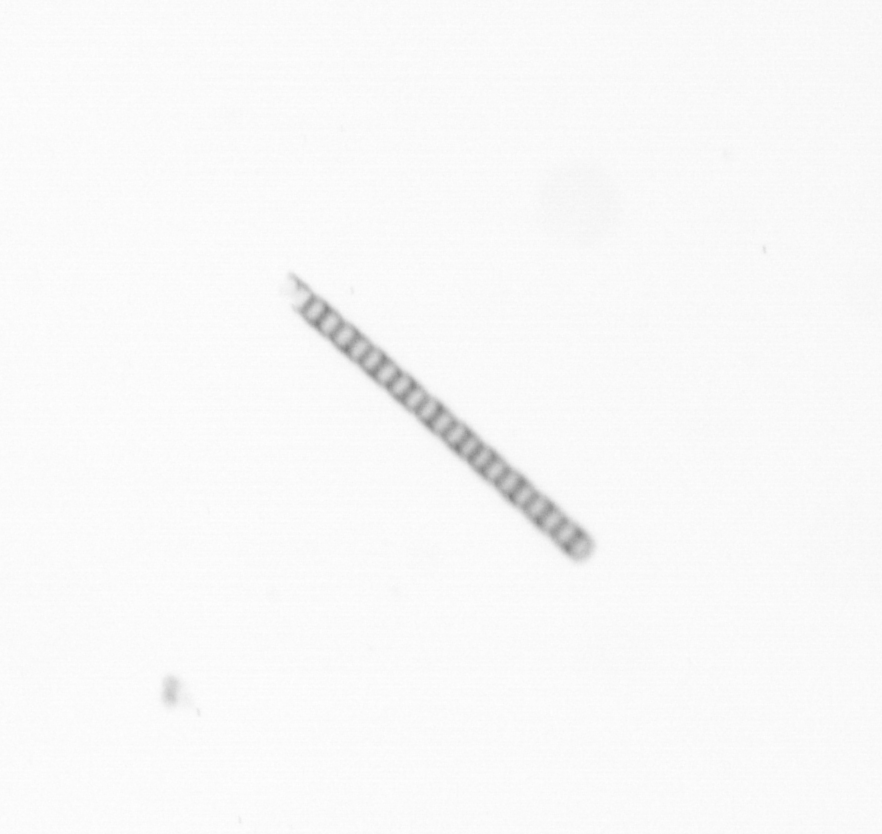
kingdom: Chromista
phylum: Ochrophyta
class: Bacillariophyceae
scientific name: Bacillariophyceae
